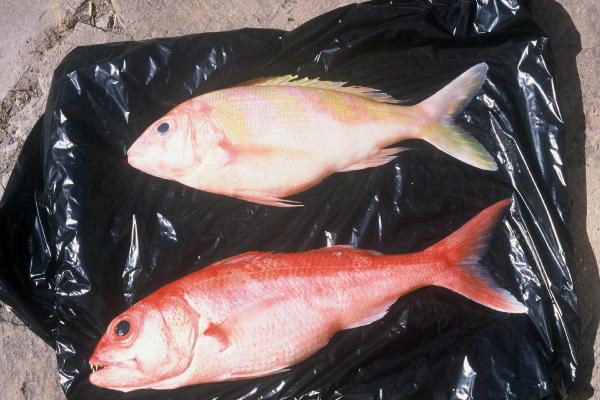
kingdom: Animalia
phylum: Chordata
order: Perciformes
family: Lutjanidae
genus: Pristipomoides
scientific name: Pristipomoides zonatus
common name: Brigham's snapper fish
